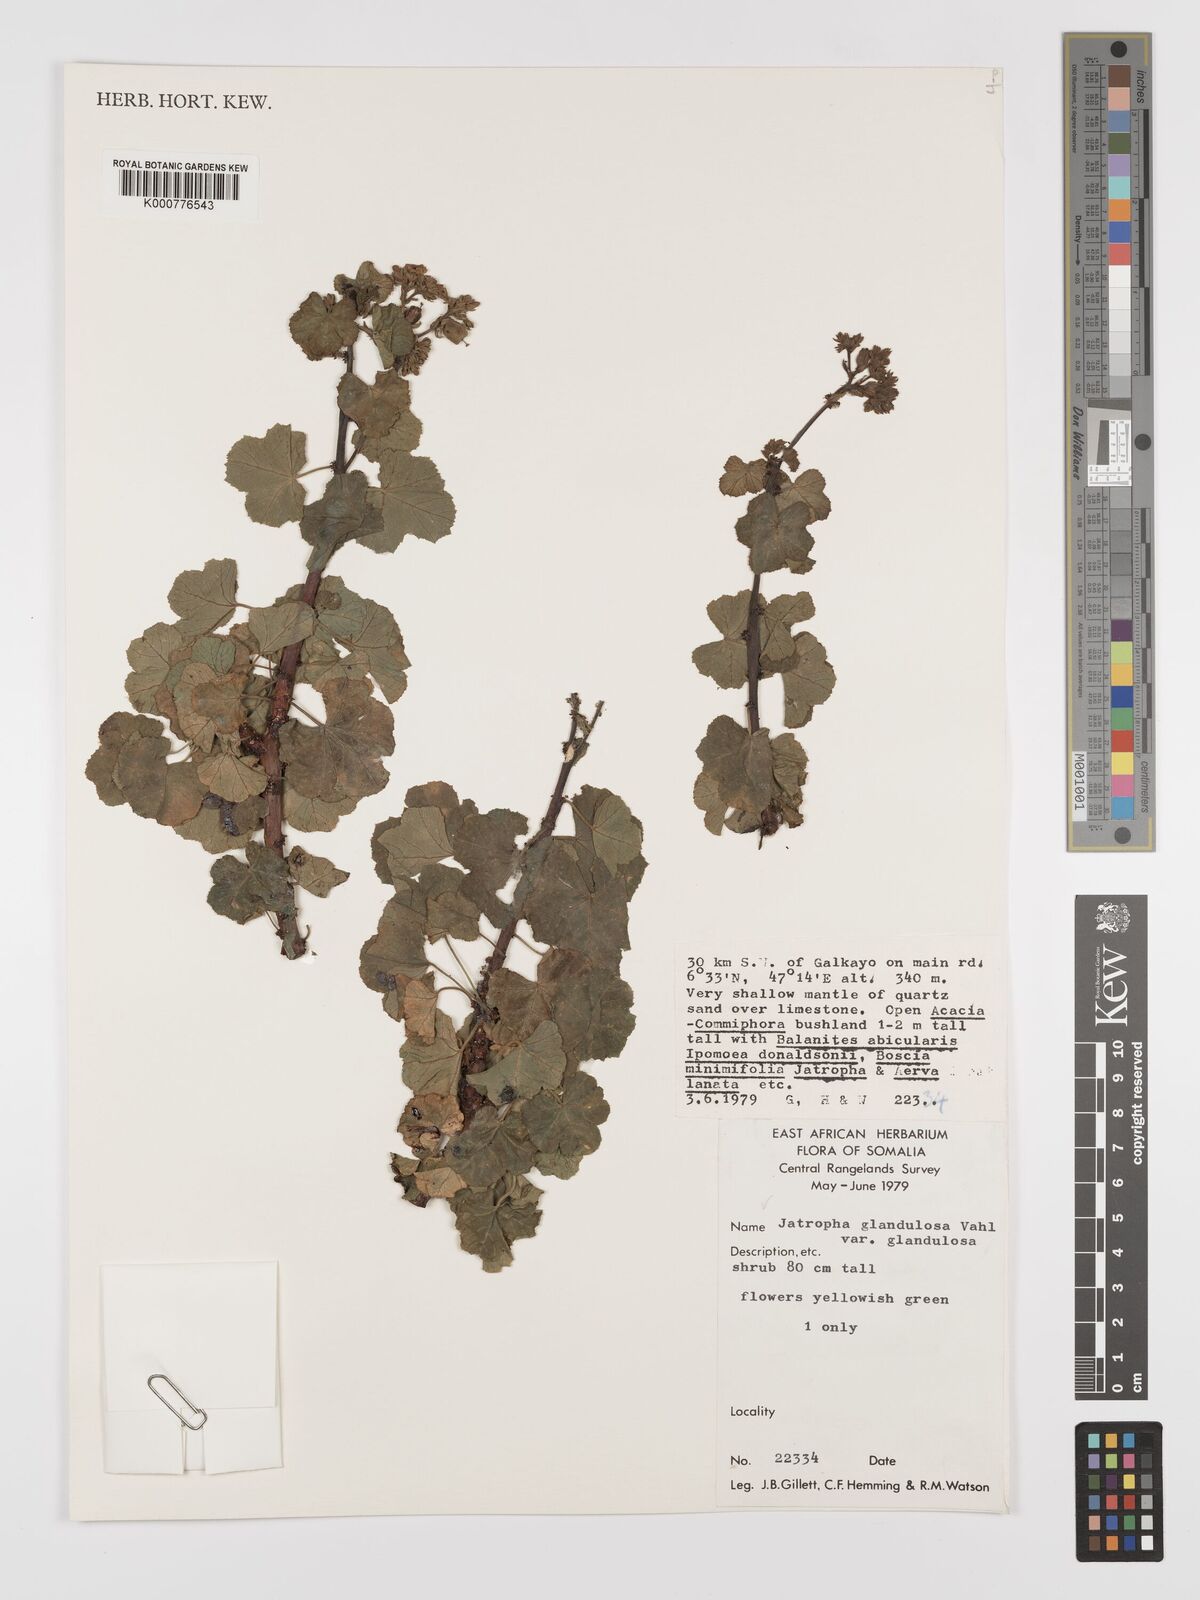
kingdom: Plantae
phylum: Tracheophyta
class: Magnoliopsida
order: Malpighiales
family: Euphorbiaceae
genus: Jatropha
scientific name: Jatropha pelargoniifolia
